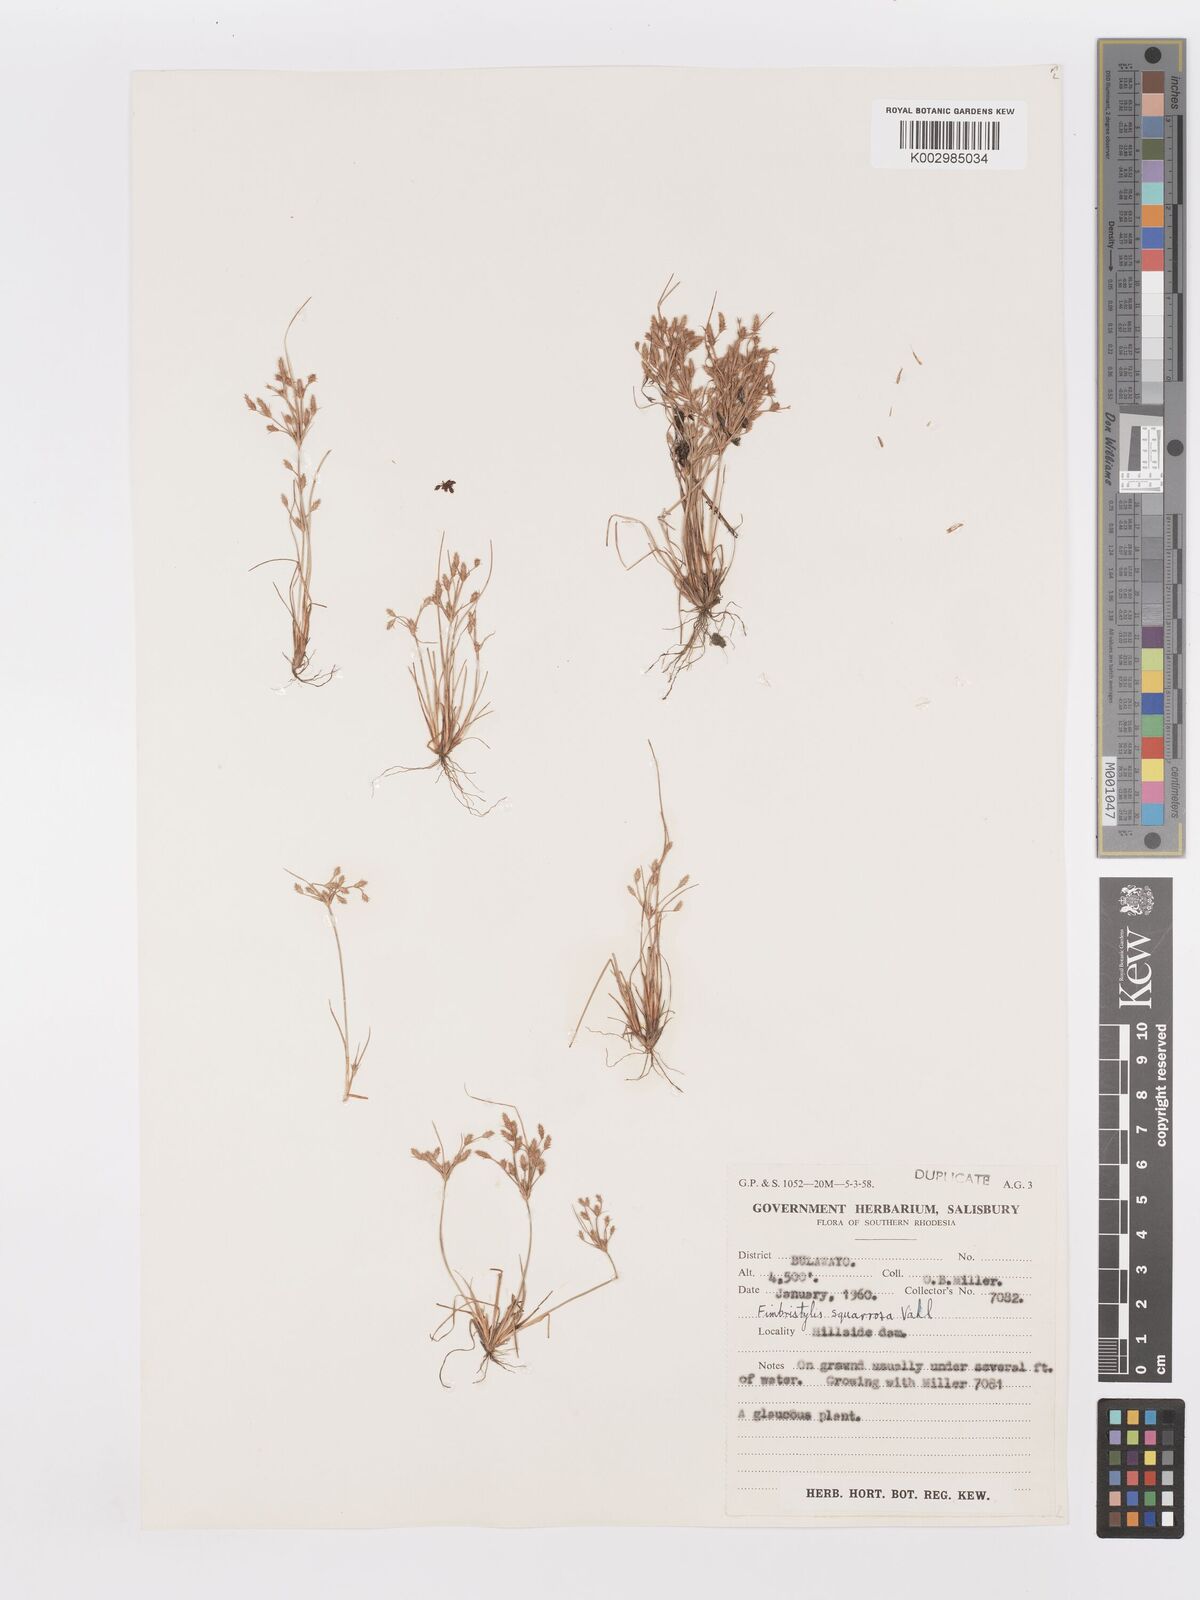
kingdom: Plantae
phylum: Tracheophyta
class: Liliopsida
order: Poales
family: Cyperaceae
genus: Fimbristylis
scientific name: Fimbristylis squarrosa
